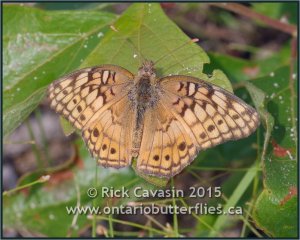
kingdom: Animalia
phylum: Arthropoda
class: Insecta
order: Lepidoptera
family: Nymphalidae
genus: Euptoieta
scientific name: Euptoieta claudia
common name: Variegated Fritillary
